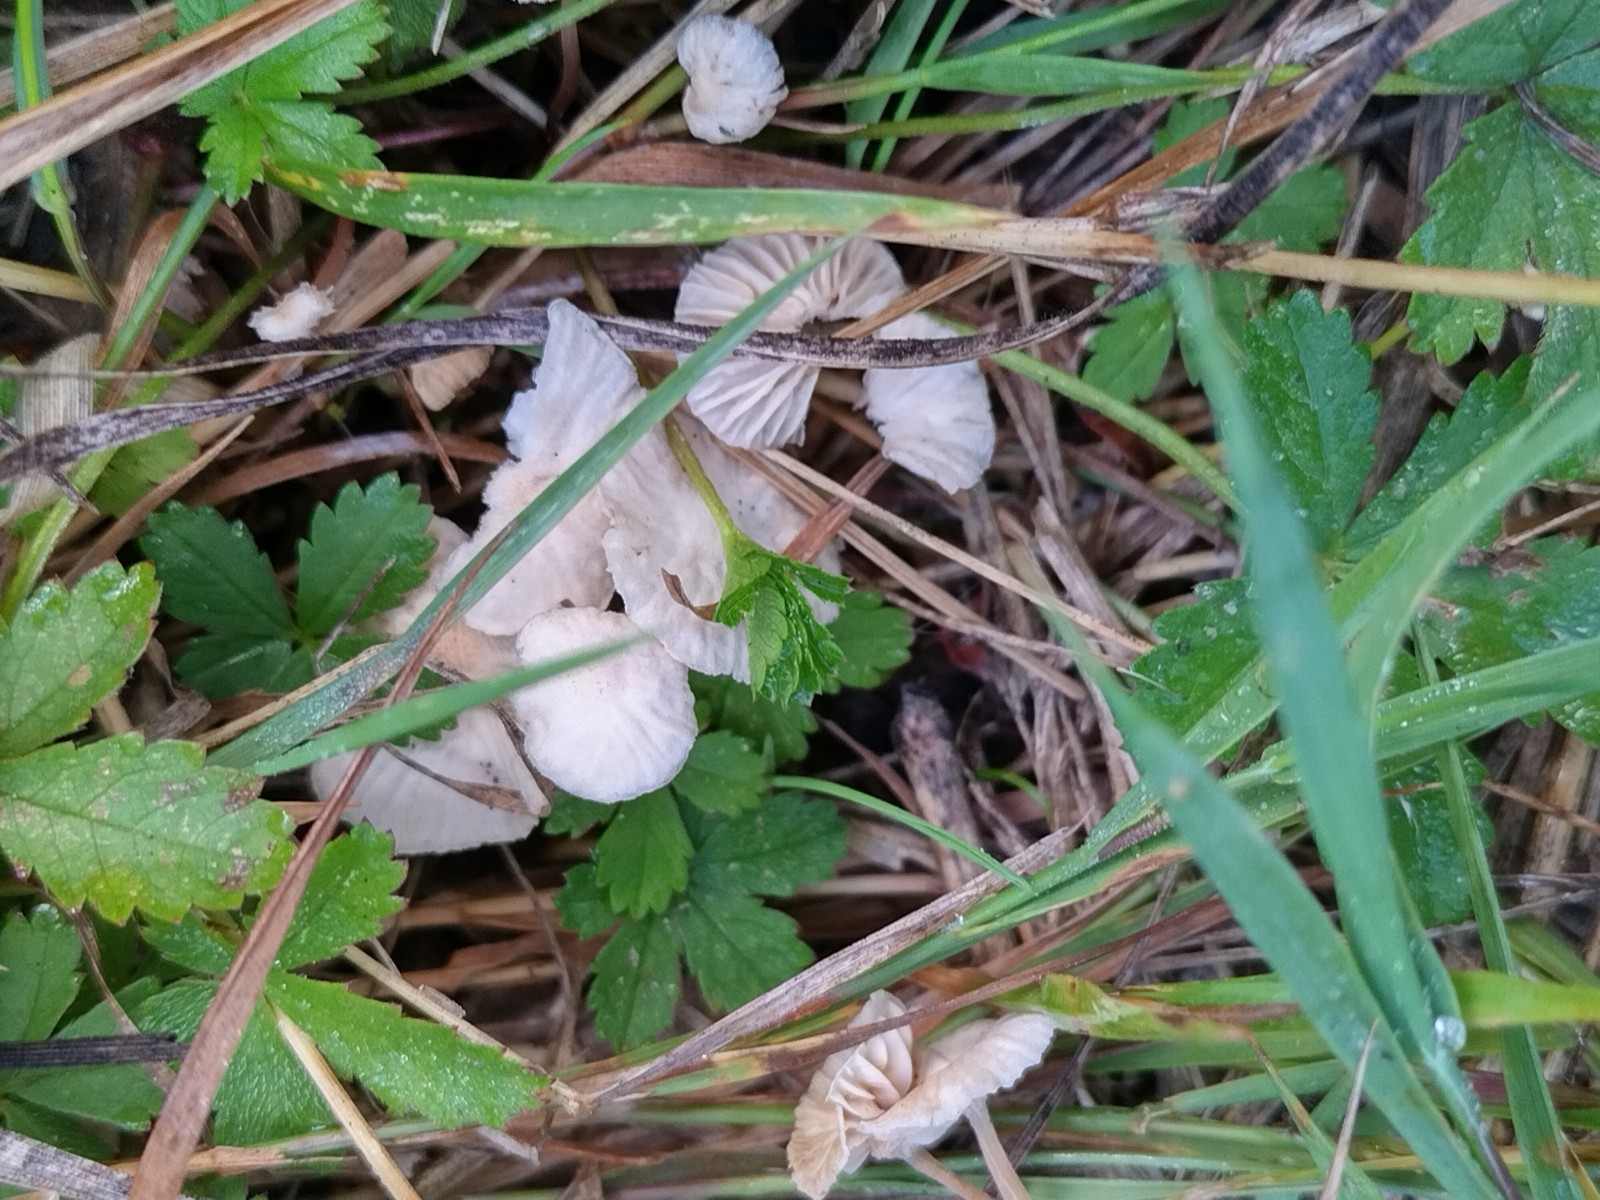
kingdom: Fungi
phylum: Basidiomycota
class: Agaricomycetes
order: Agaricales
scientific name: Agaricales
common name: champignonordenen
